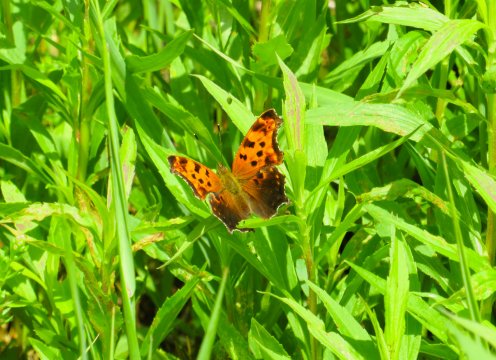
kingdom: Animalia
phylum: Arthropoda
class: Insecta
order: Lepidoptera
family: Nymphalidae
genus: Polygonia
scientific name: Polygonia comma
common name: Eastern Comma
